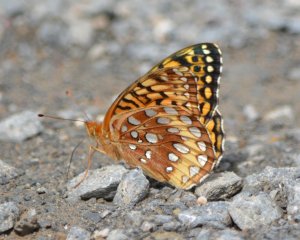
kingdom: Animalia
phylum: Arthropoda
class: Insecta
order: Lepidoptera
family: Nymphalidae
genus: Speyeria
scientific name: Speyeria cybele
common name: Great Spangled Fritillary
